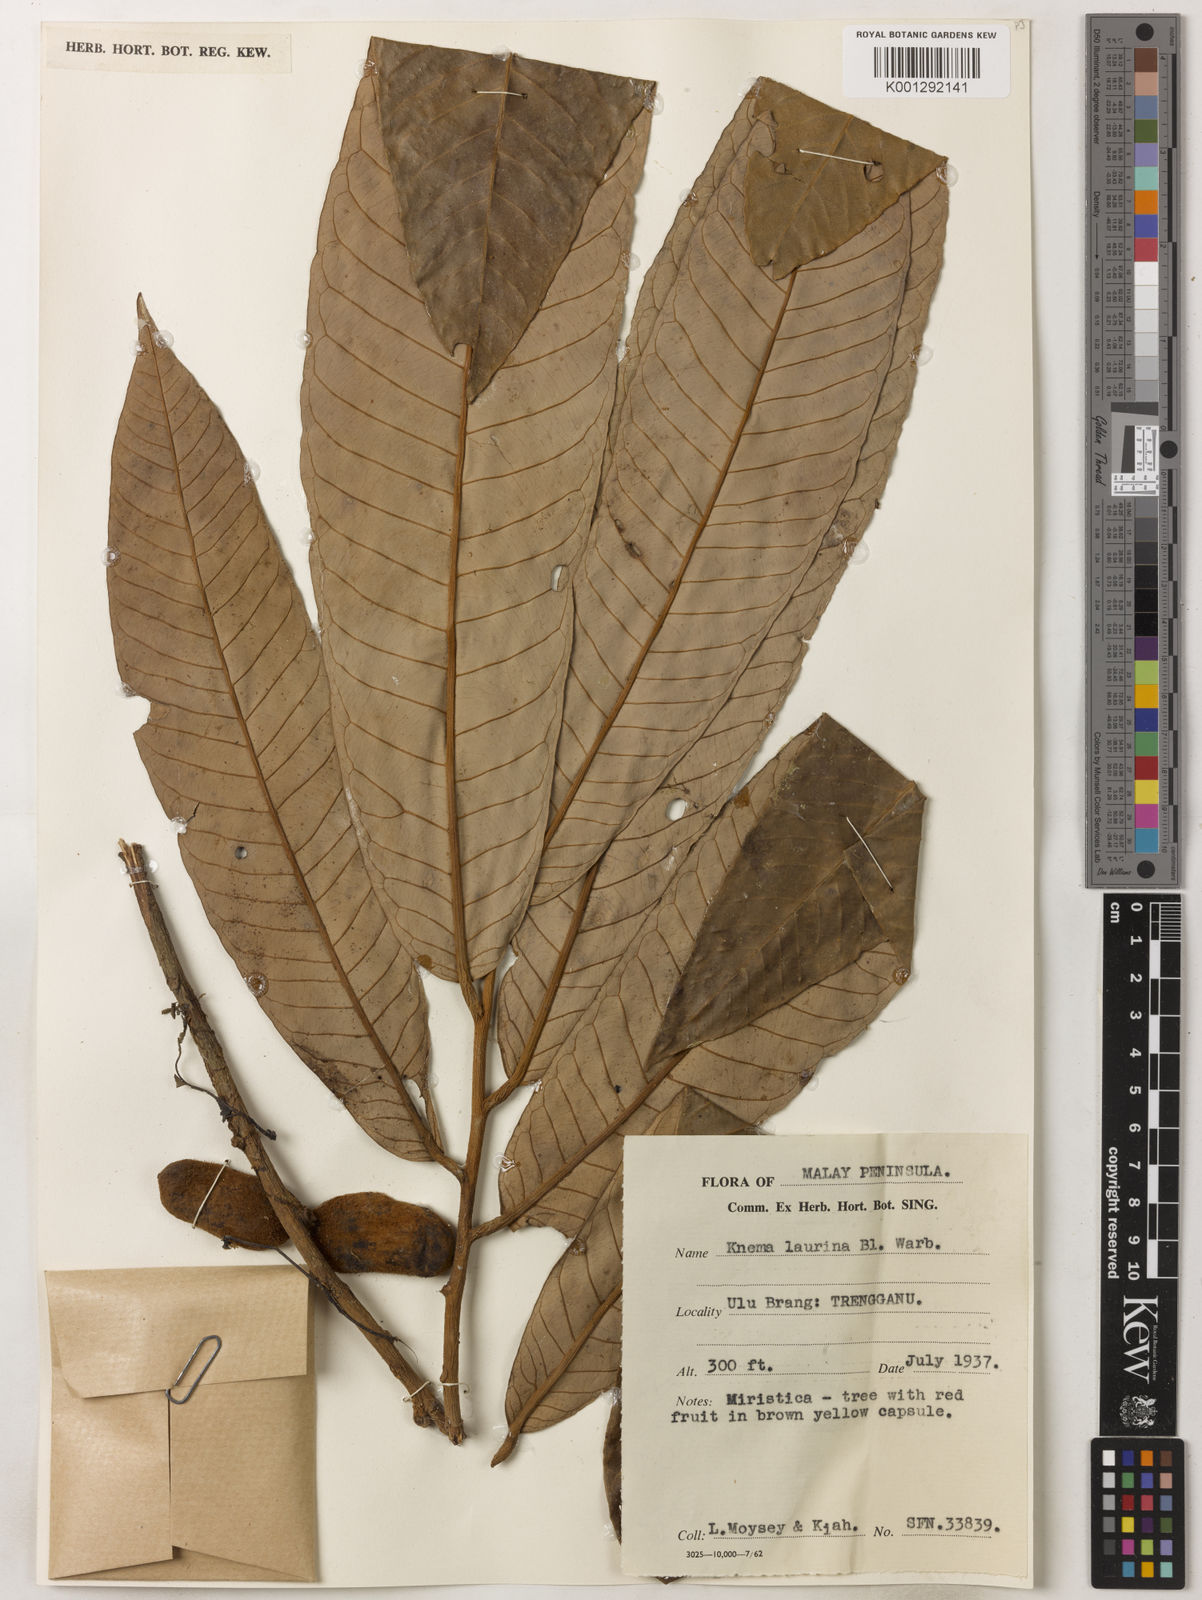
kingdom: Plantae
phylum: Tracheophyta
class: Magnoliopsida
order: Magnoliales
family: Myristicaceae
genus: Knema
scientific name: Knema laurina
